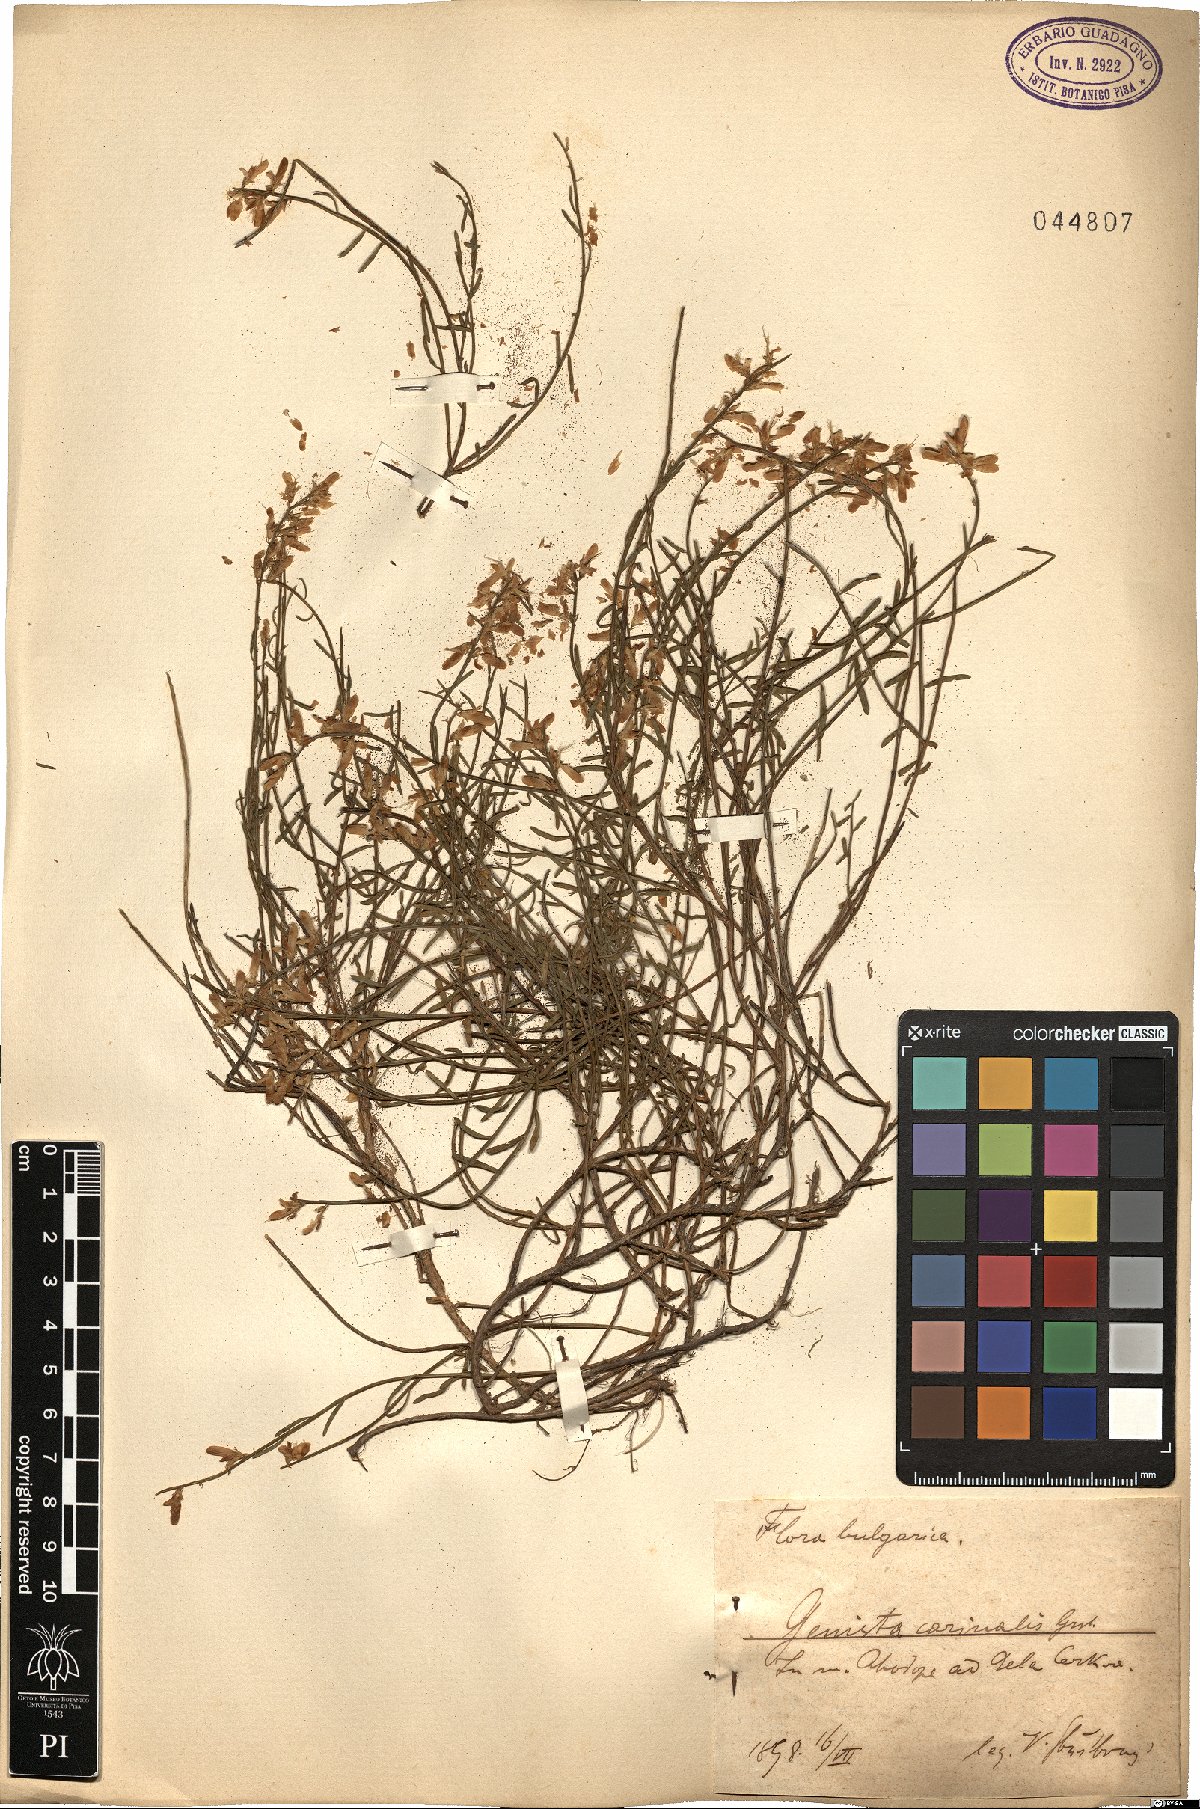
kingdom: Plantae
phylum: Tracheophyta
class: Magnoliopsida
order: Fabales
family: Fabaceae
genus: Genista
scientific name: Genista carinalis
